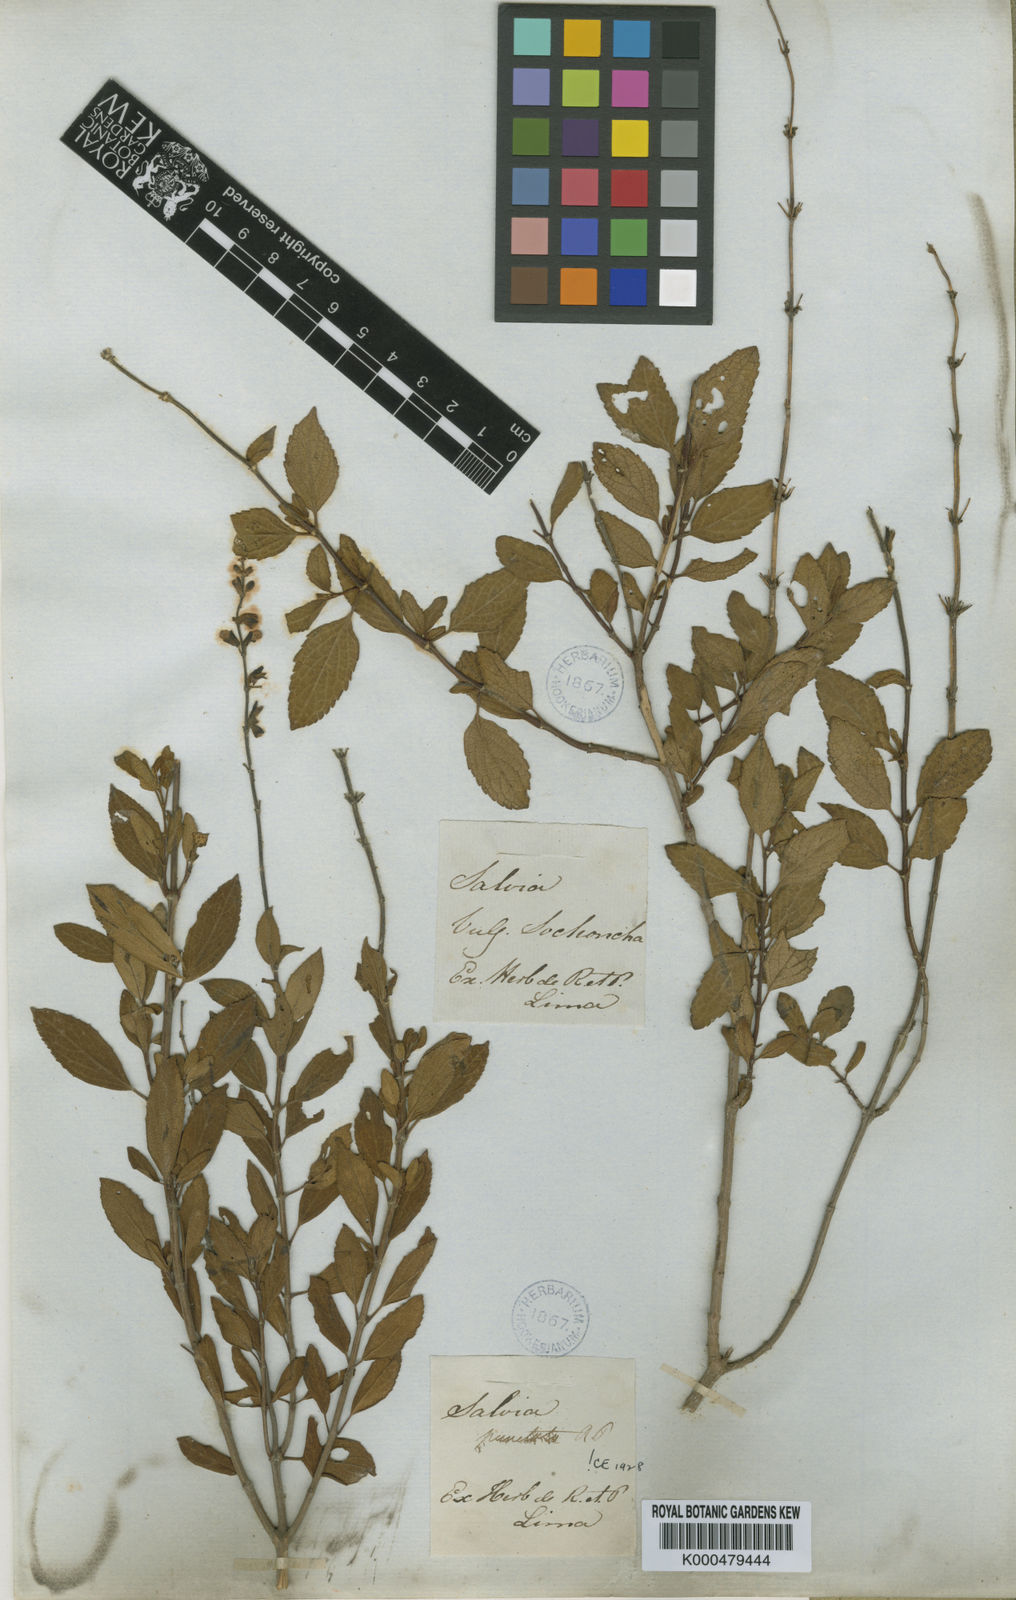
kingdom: Plantae
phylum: Tracheophyta
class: Magnoliopsida
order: Lamiales
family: Lamiaceae
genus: Salvia
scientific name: Salvia punctata
